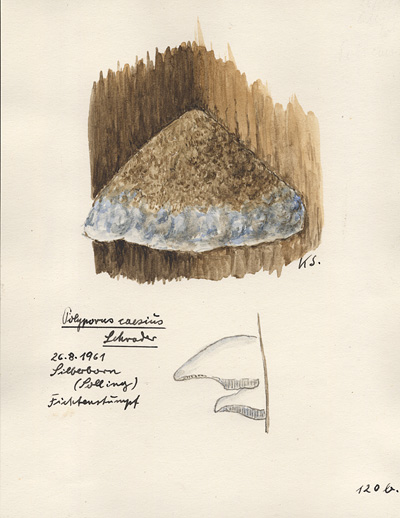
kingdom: Fungi
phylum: Basidiomycota
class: Agaricomycetes
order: Polyporales
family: Polyporaceae
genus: Cyanosporus
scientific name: Cyanosporus caesius
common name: Blue cheese polypore
